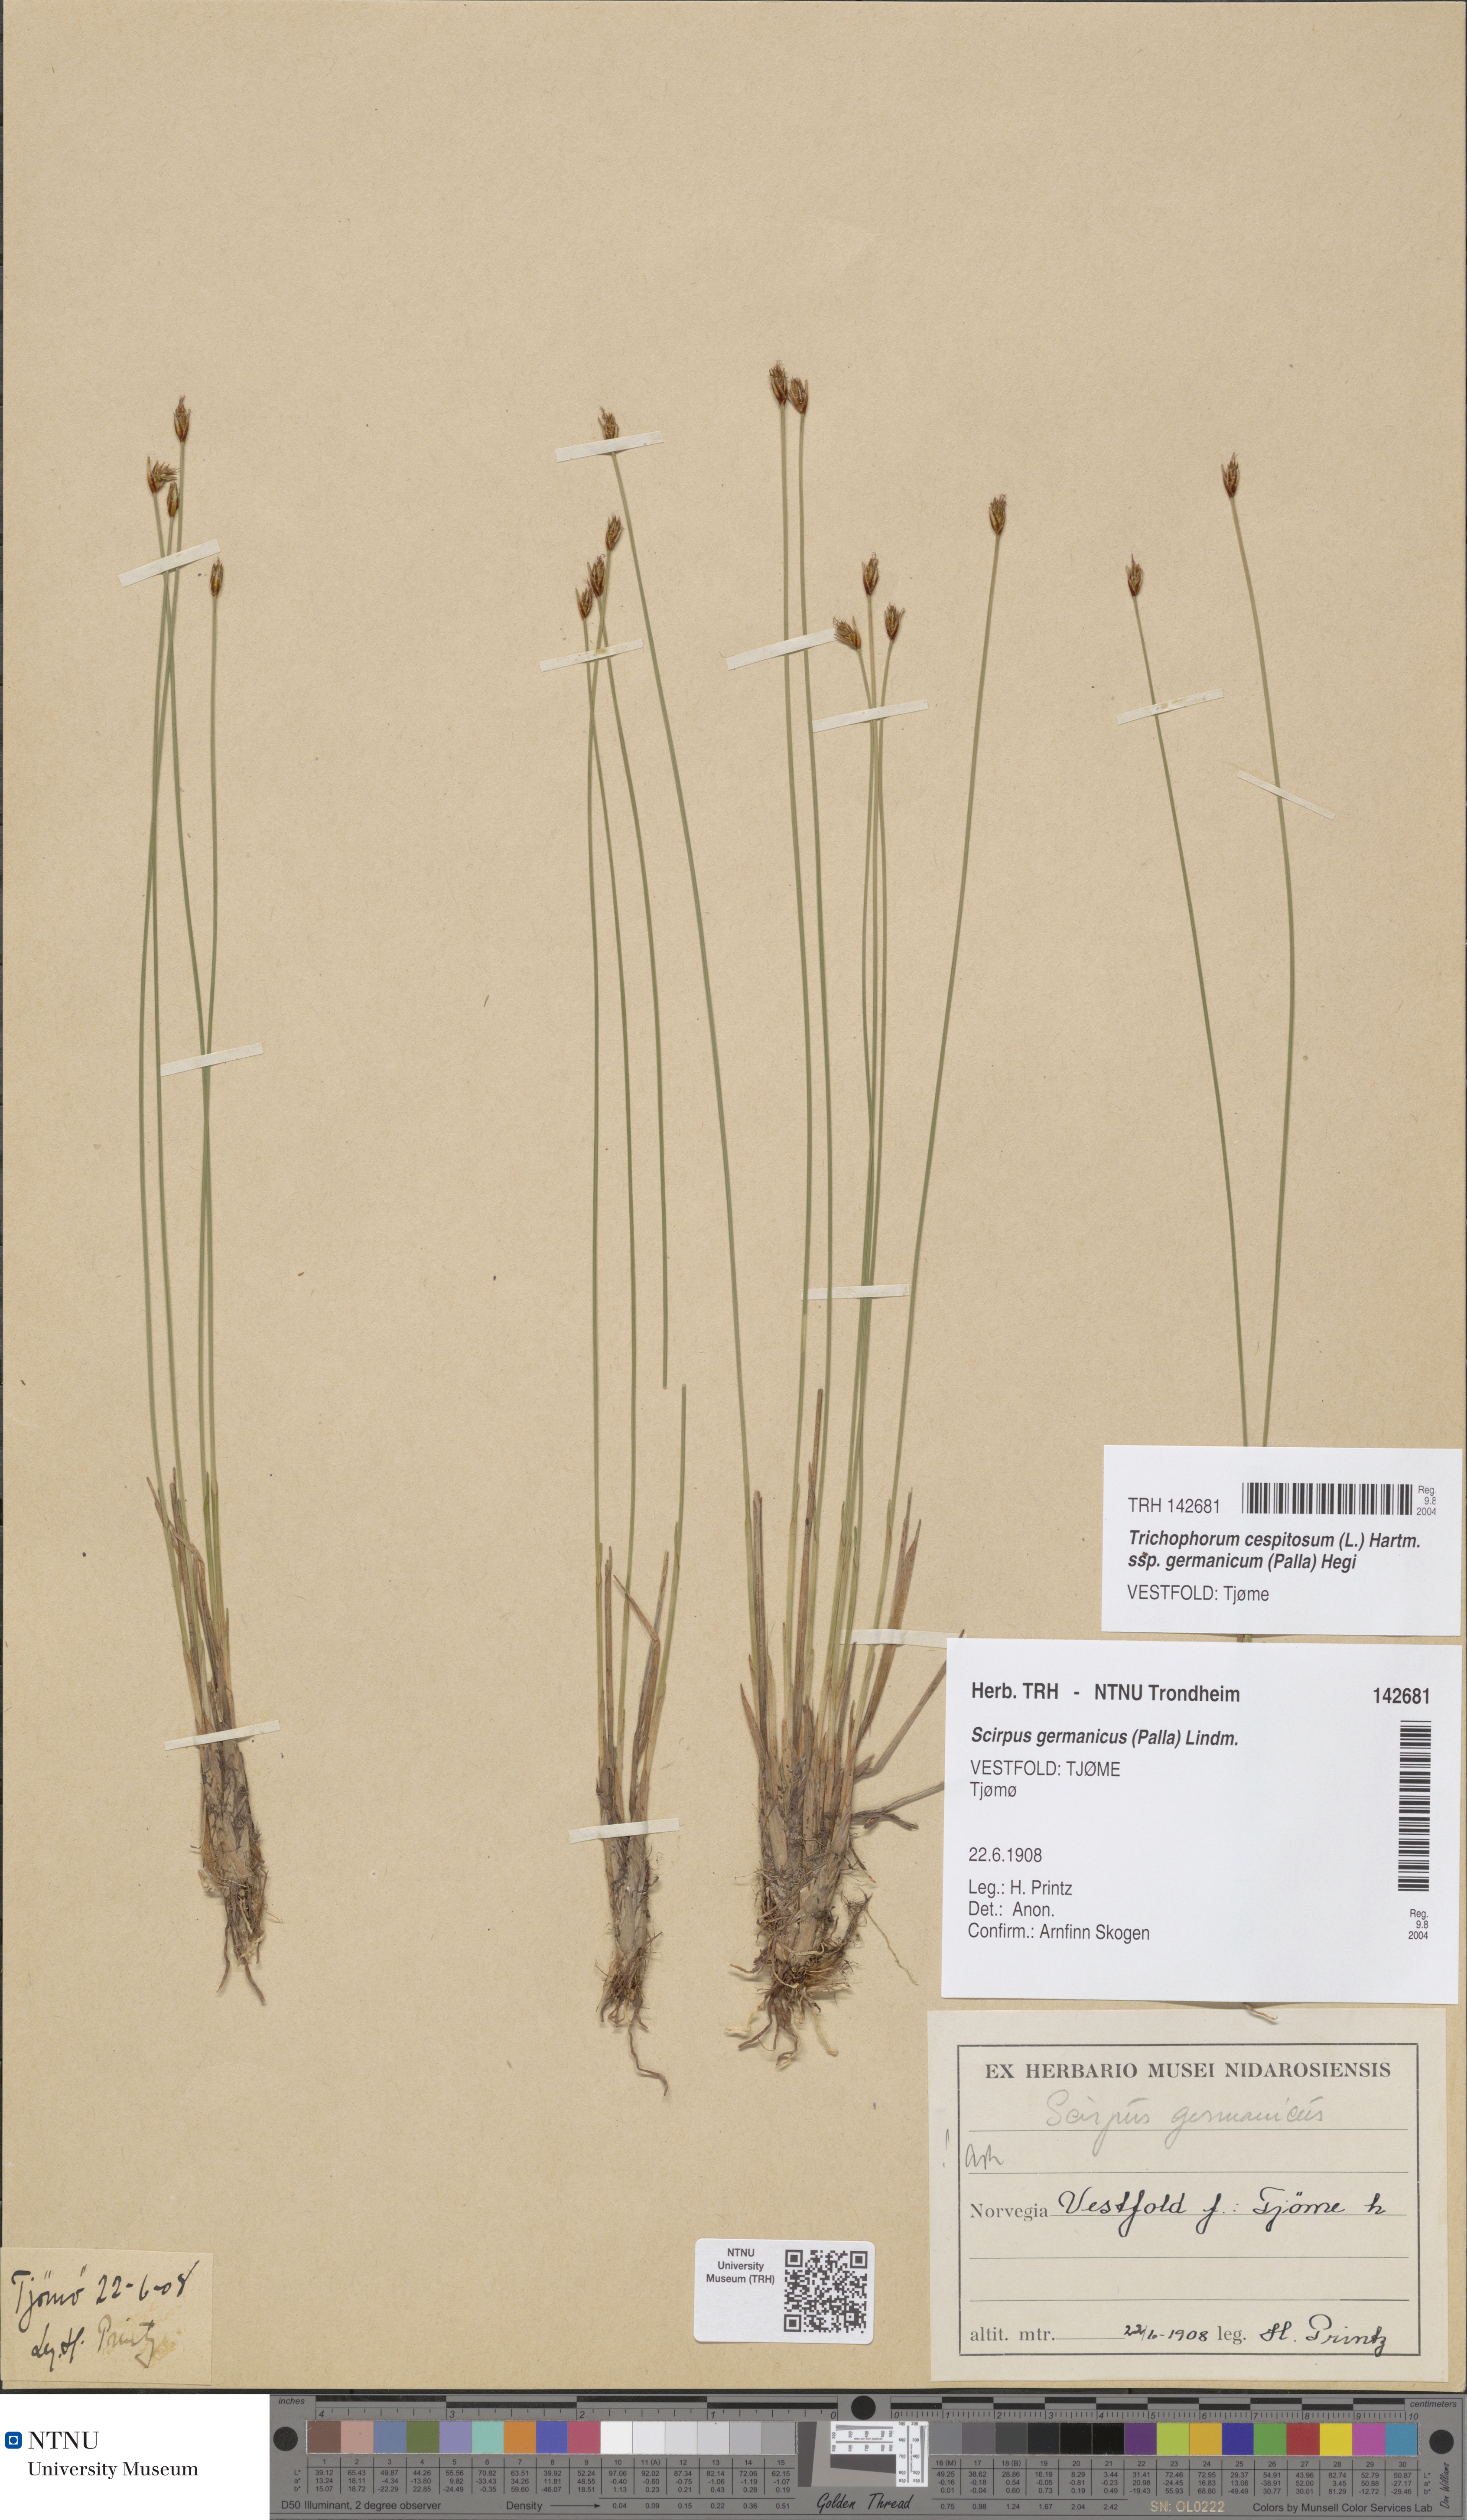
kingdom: Plantae
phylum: Tracheophyta
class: Liliopsida
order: Poales
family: Cyperaceae
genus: Trichophorum
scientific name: Trichophorum cespitosum
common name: Cespitose bulrush
